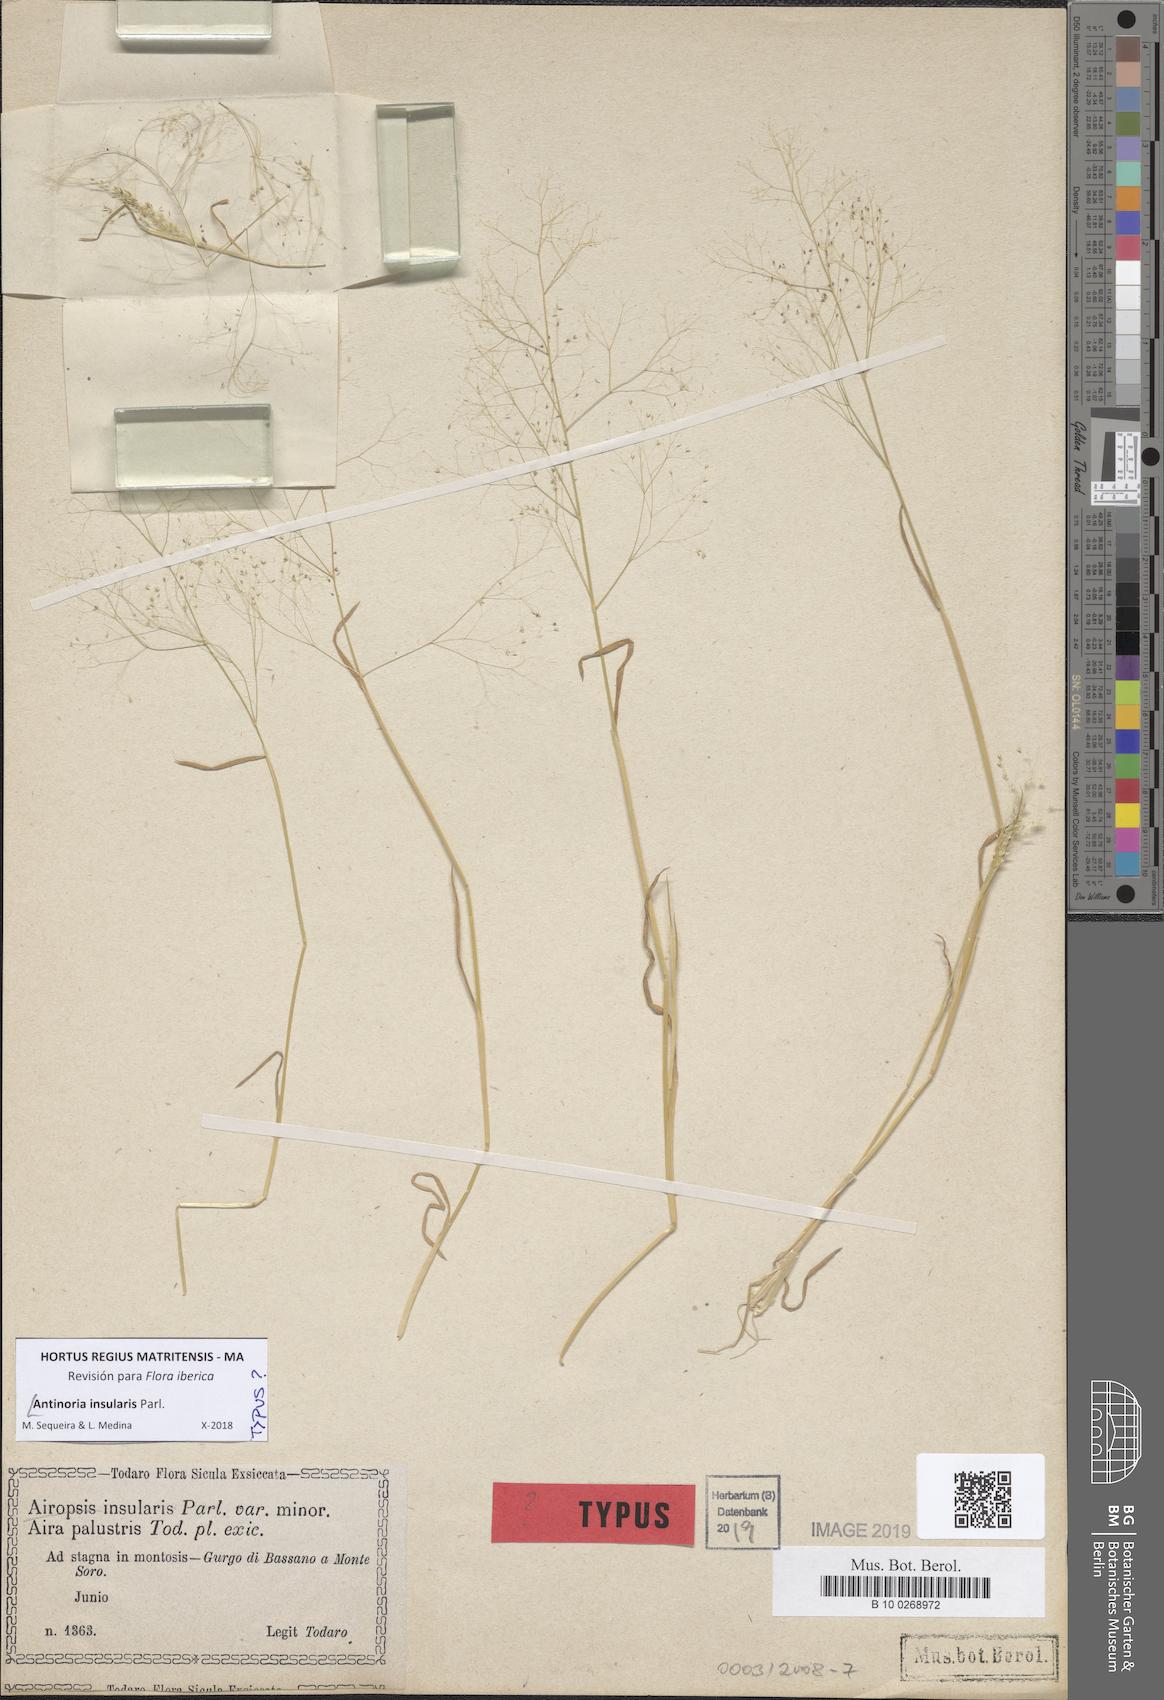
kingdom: Plantae
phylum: Tracheophyta
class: Liliopsida
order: Poales
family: Poaceae
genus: Antinoria
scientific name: Antinoria insularis
